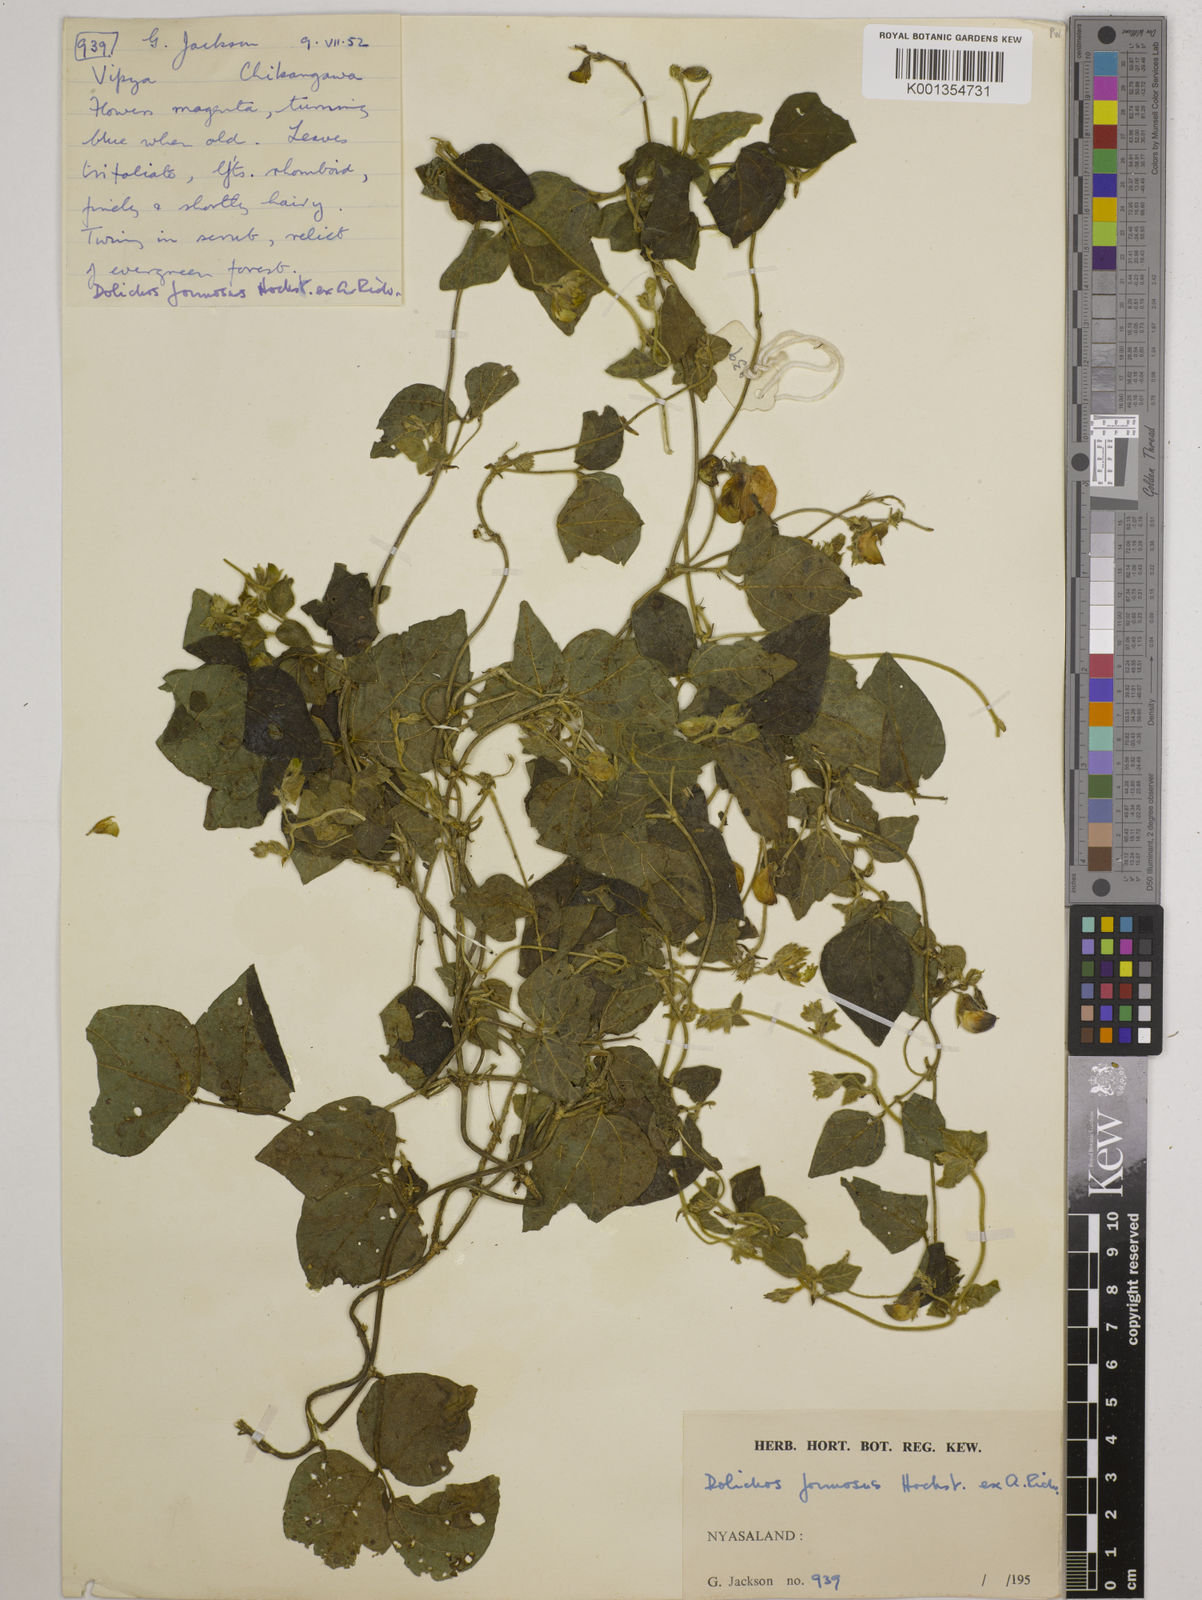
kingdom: Plantae
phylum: Tracheophyta
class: Magnoliopsida
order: Fabales
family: Fabaceae
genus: Dolichos
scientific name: Dolichos
